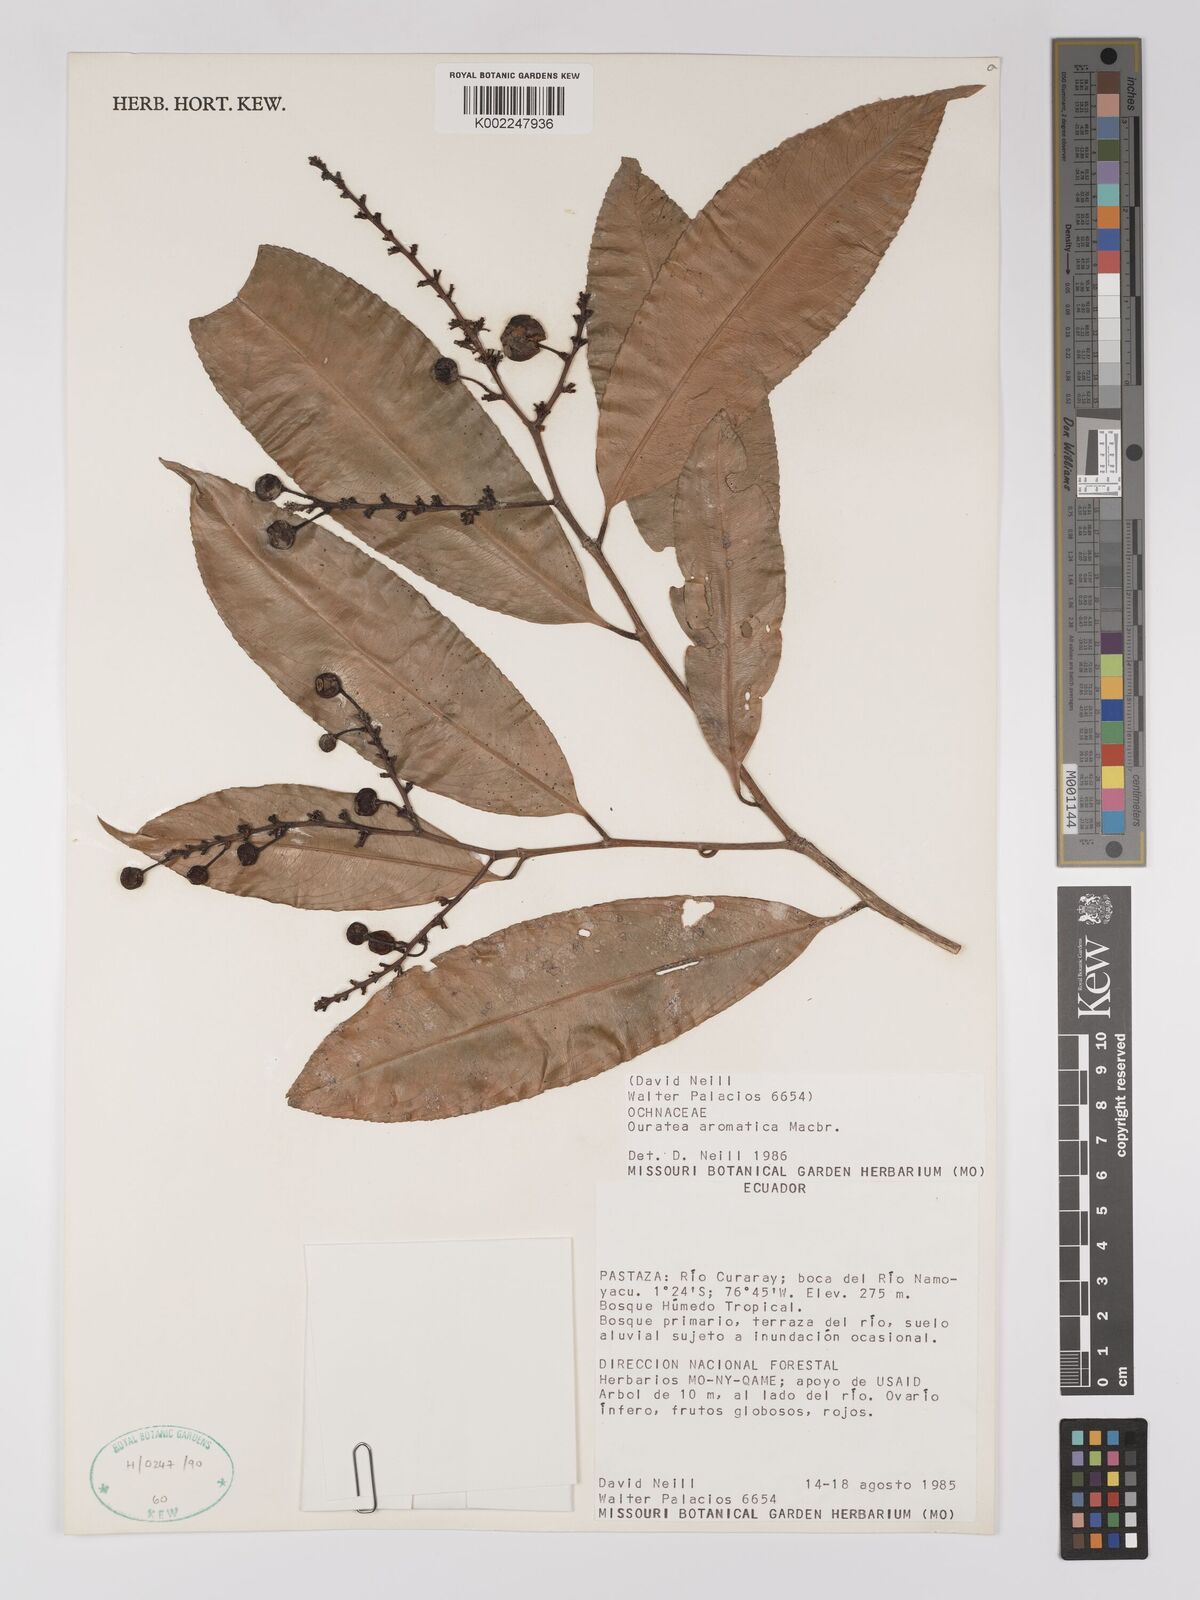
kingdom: Plantae
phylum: Tracheophyta
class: Magnoliopsida
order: Malpighiales
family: Ochnaceae
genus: Ouratea
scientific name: Ouratea aromatica
